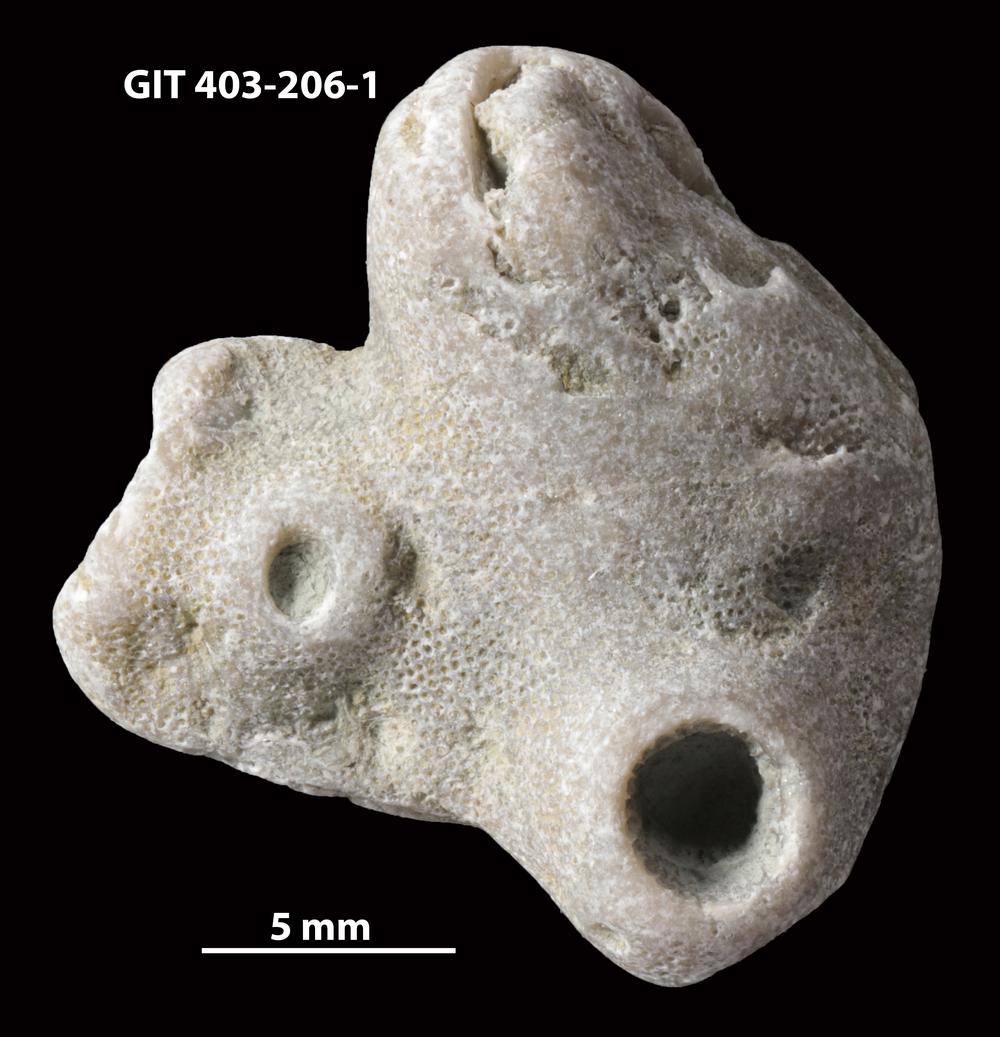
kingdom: Animalia
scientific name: Animalia
